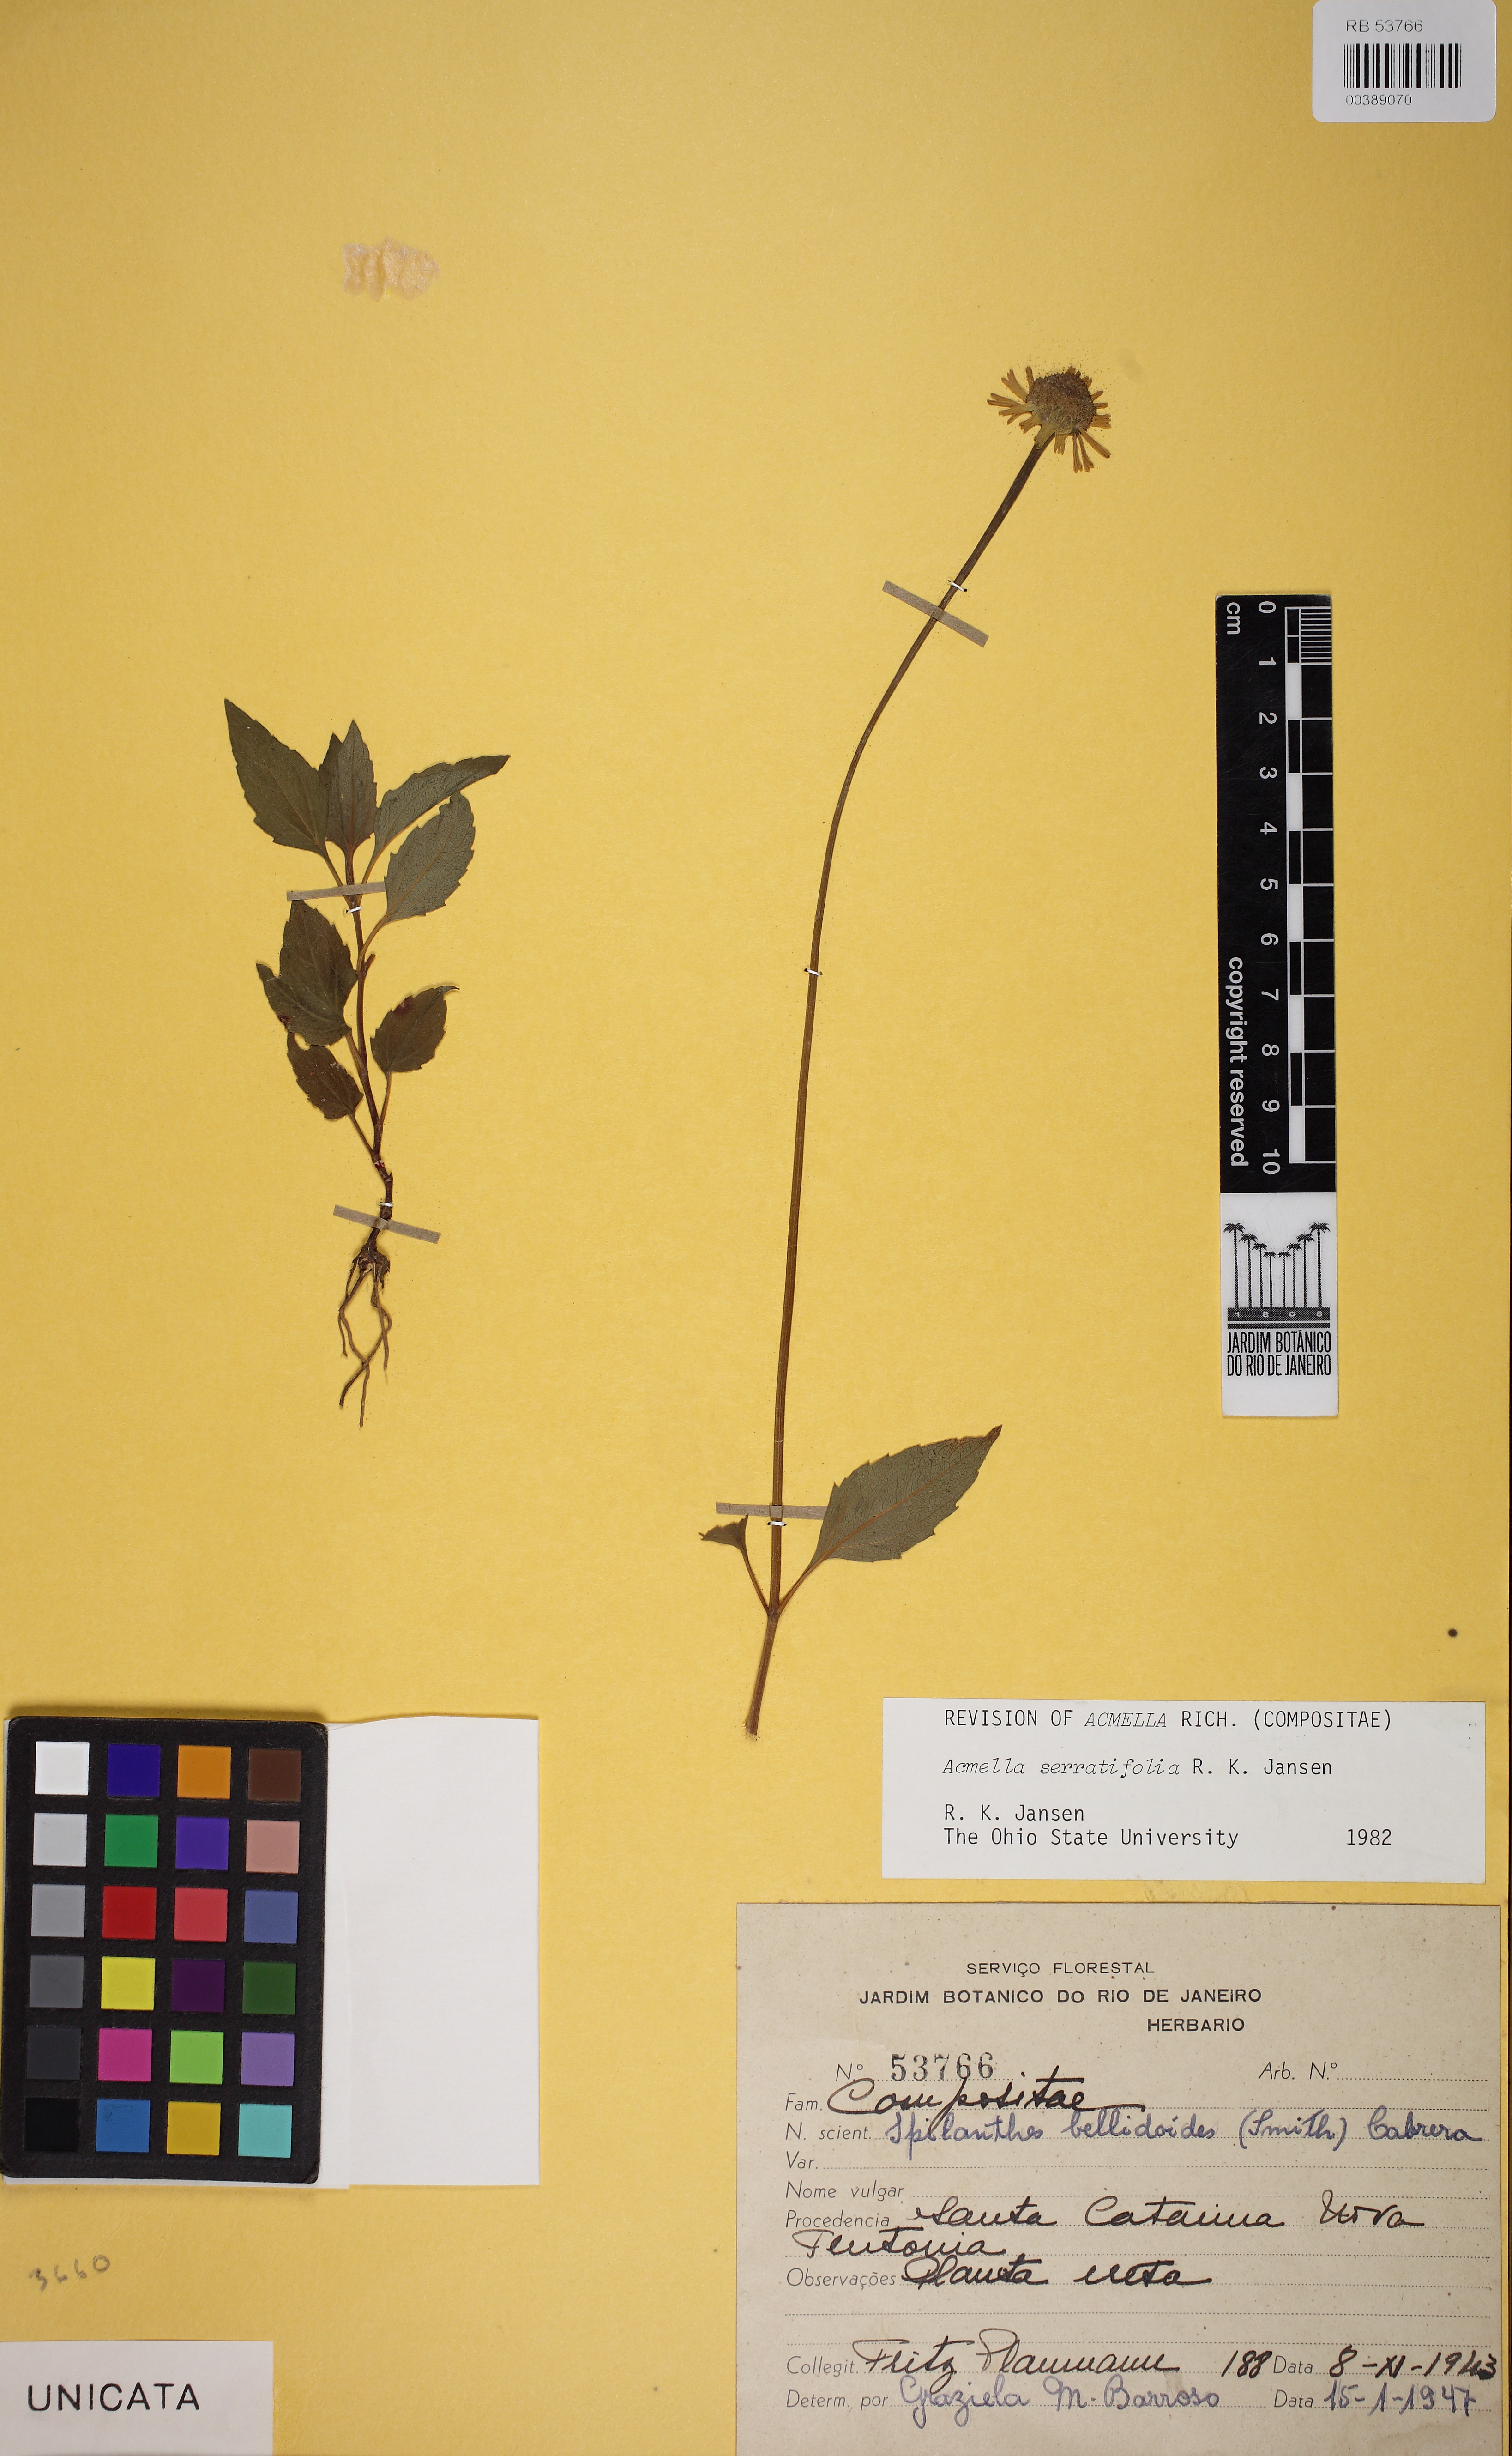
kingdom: Plantae
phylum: Tracheophyta
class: Magnoliopsida
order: Asterales
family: Asteraceae
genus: Acmella
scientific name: Acmella serratifolia
